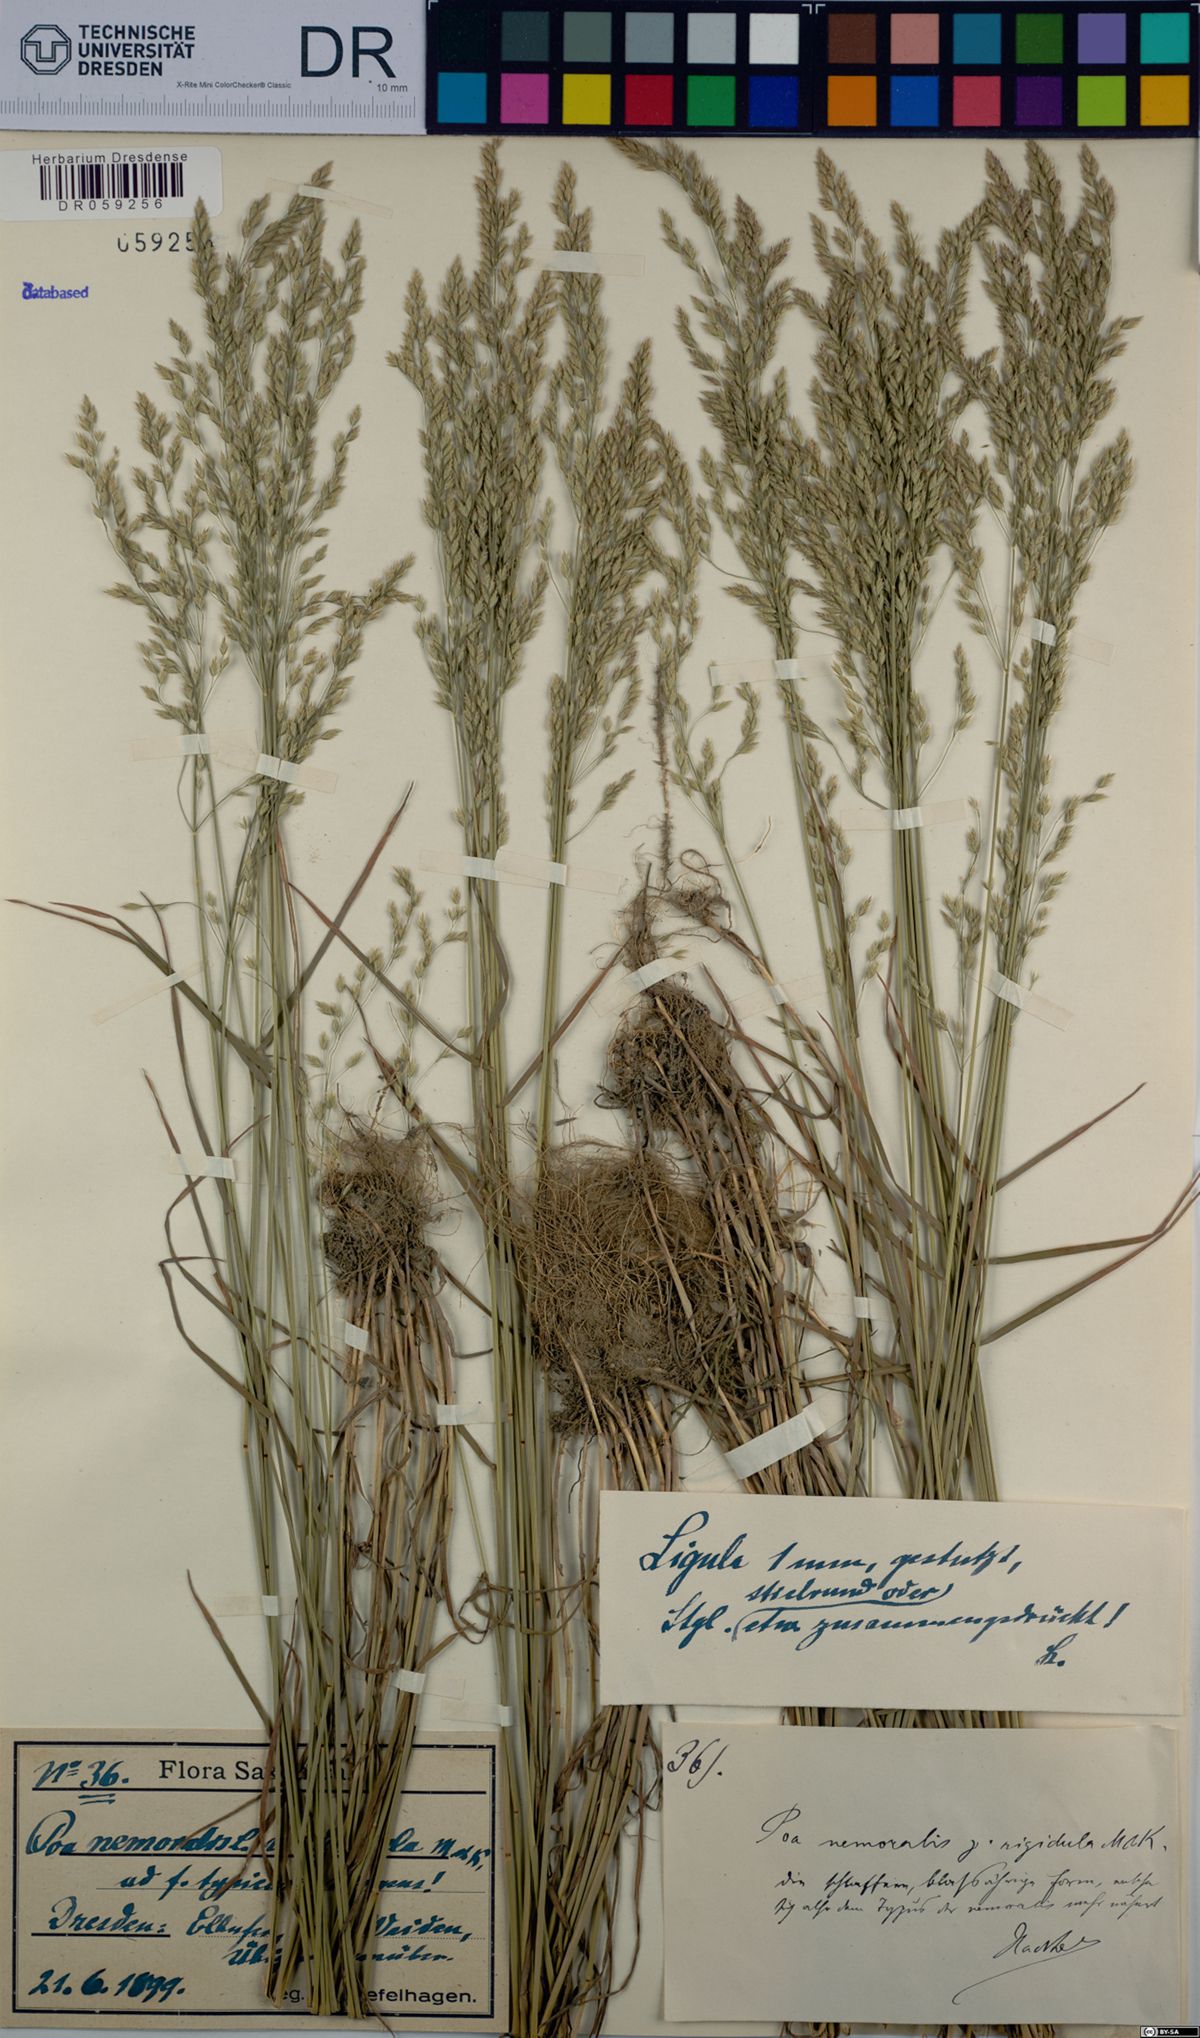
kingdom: Plantae
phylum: Tracheophyta
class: Liliopsida
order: Poales
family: Poaceae
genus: Poa
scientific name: Poa nemoralis
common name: Wood bluegrass
